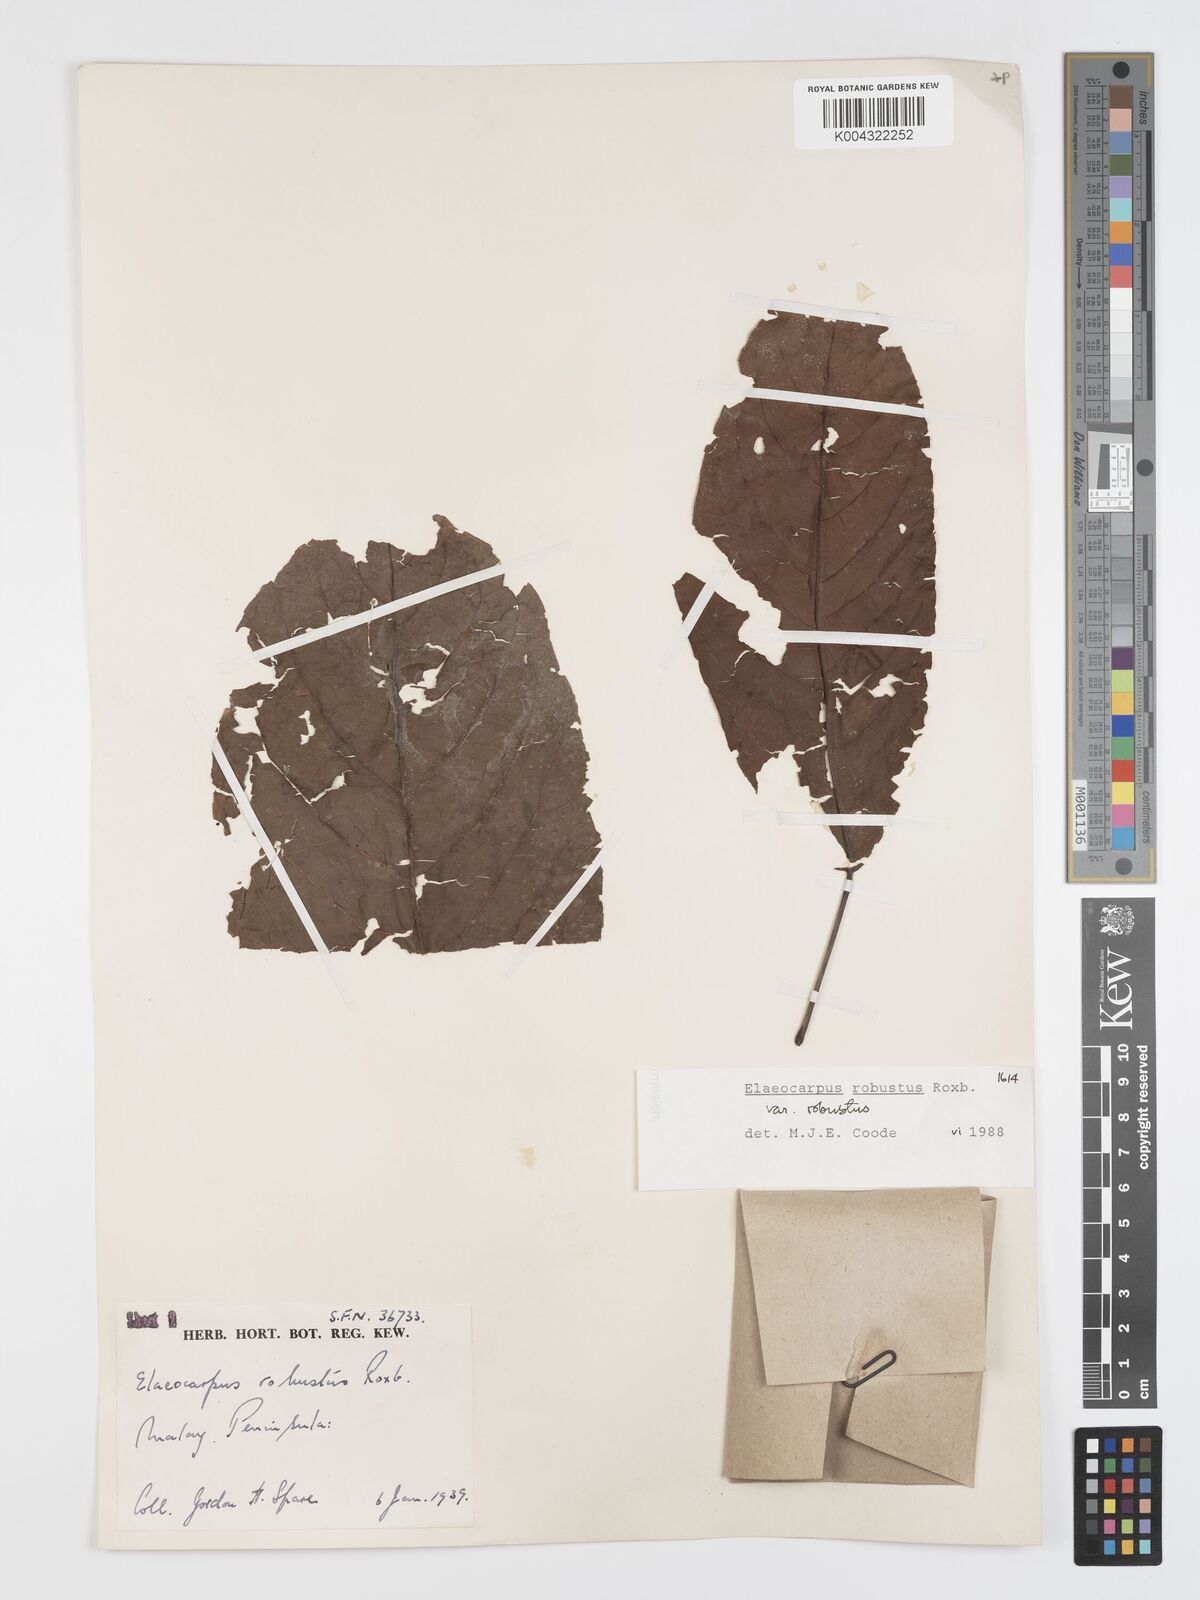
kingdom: Plantae
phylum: Tracheophyta
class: Magnoliopsida
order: Oxalidales
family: Elaeocarpaceae
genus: Elaeocarpus
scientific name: Elaeocarpus robustus
